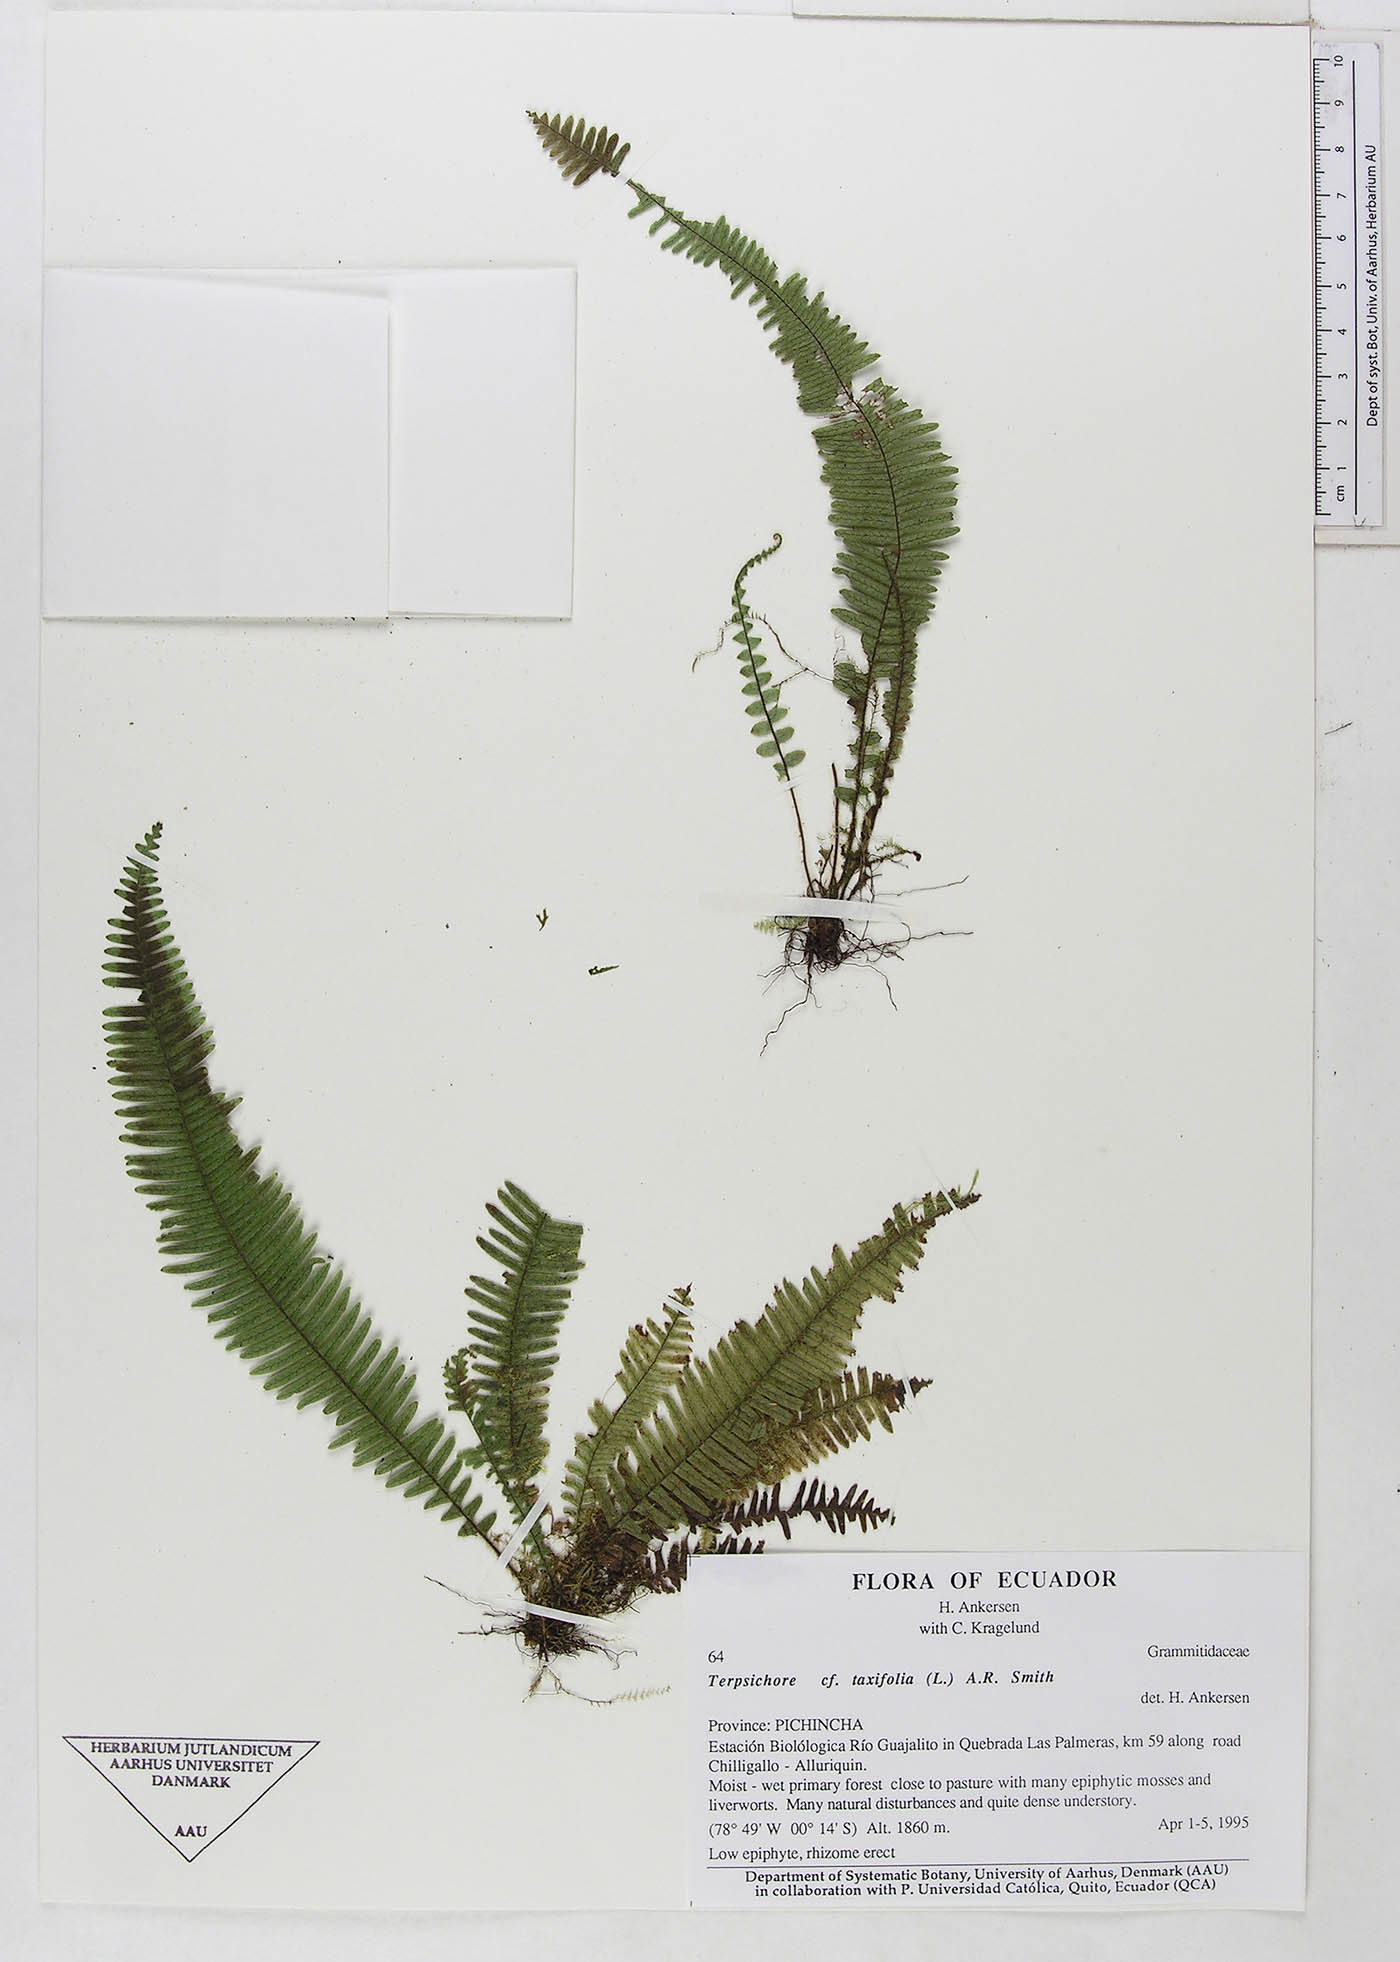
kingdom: Plantae
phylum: Tracheophyta
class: Polypodiopsida
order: Polypodiales
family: Polypodiaceae
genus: Mycopteris
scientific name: Mycopteris taxifolia
